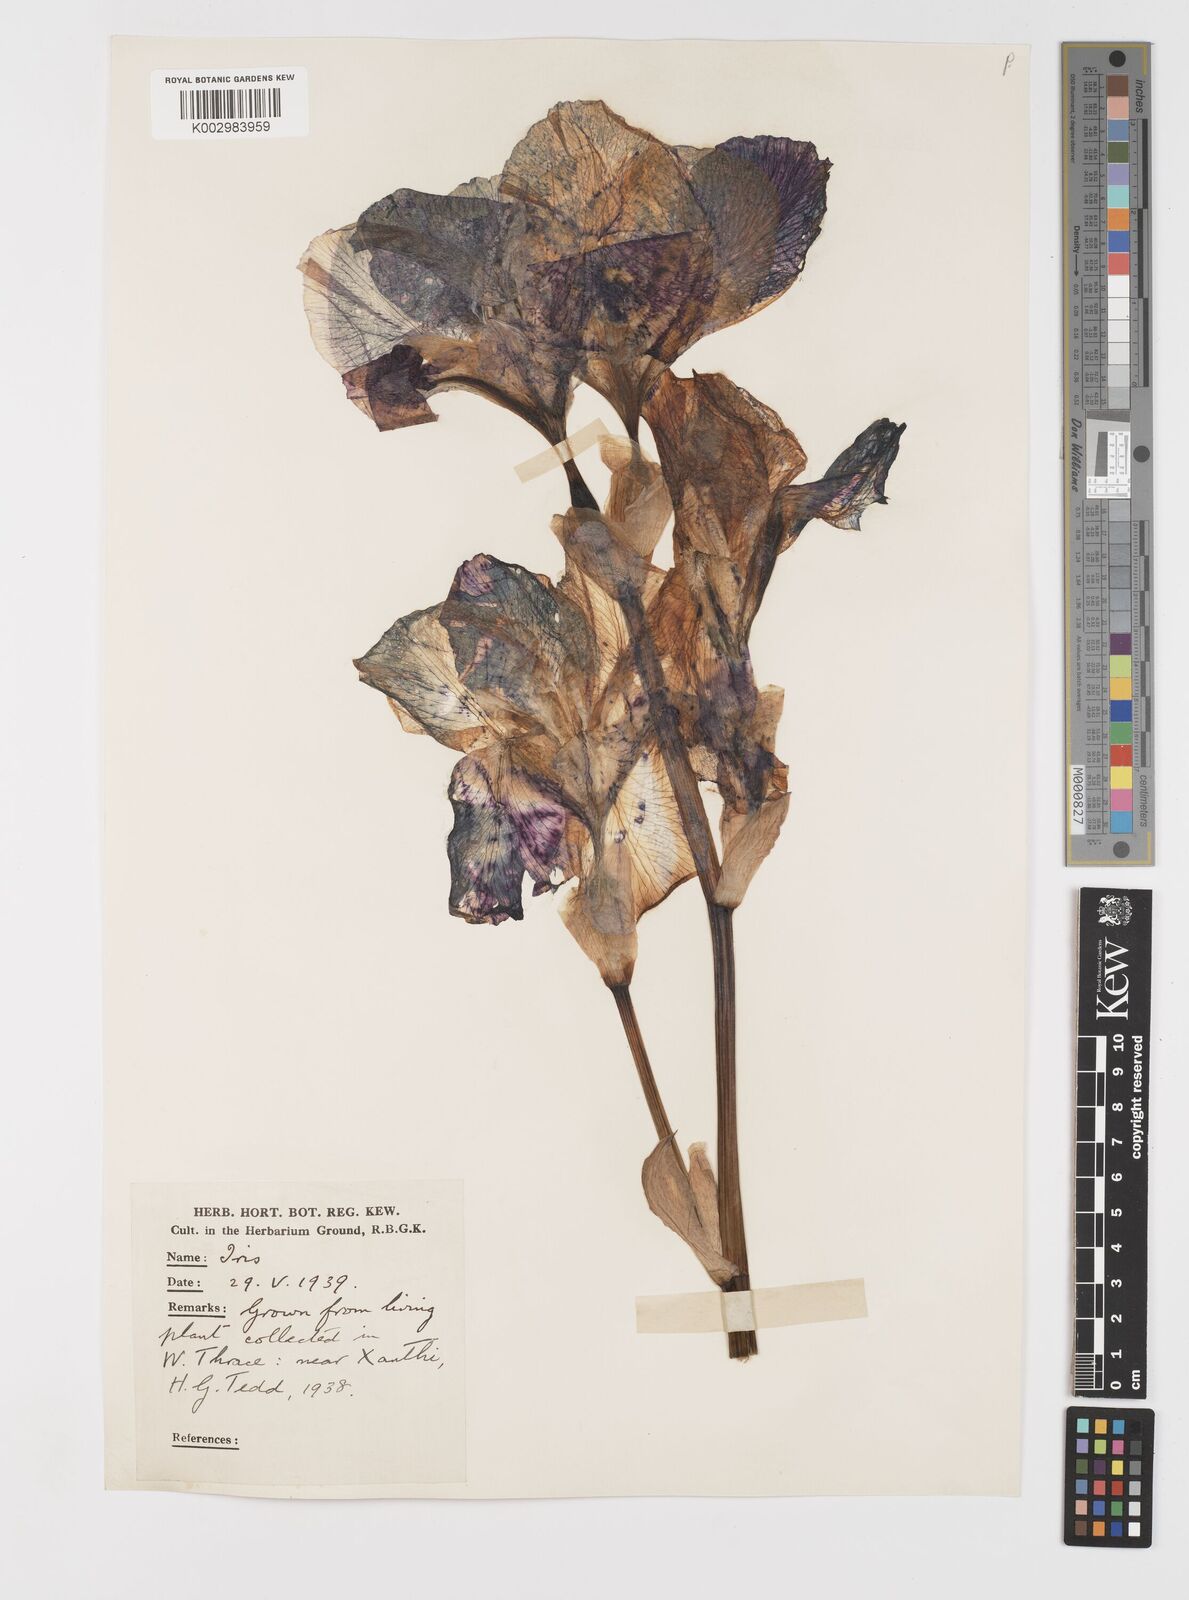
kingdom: Plantae
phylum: Tracheophyta
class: Liliopsida
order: Asparagales
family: Iridaceae
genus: Iris
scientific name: Iris germanica
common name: German iris
